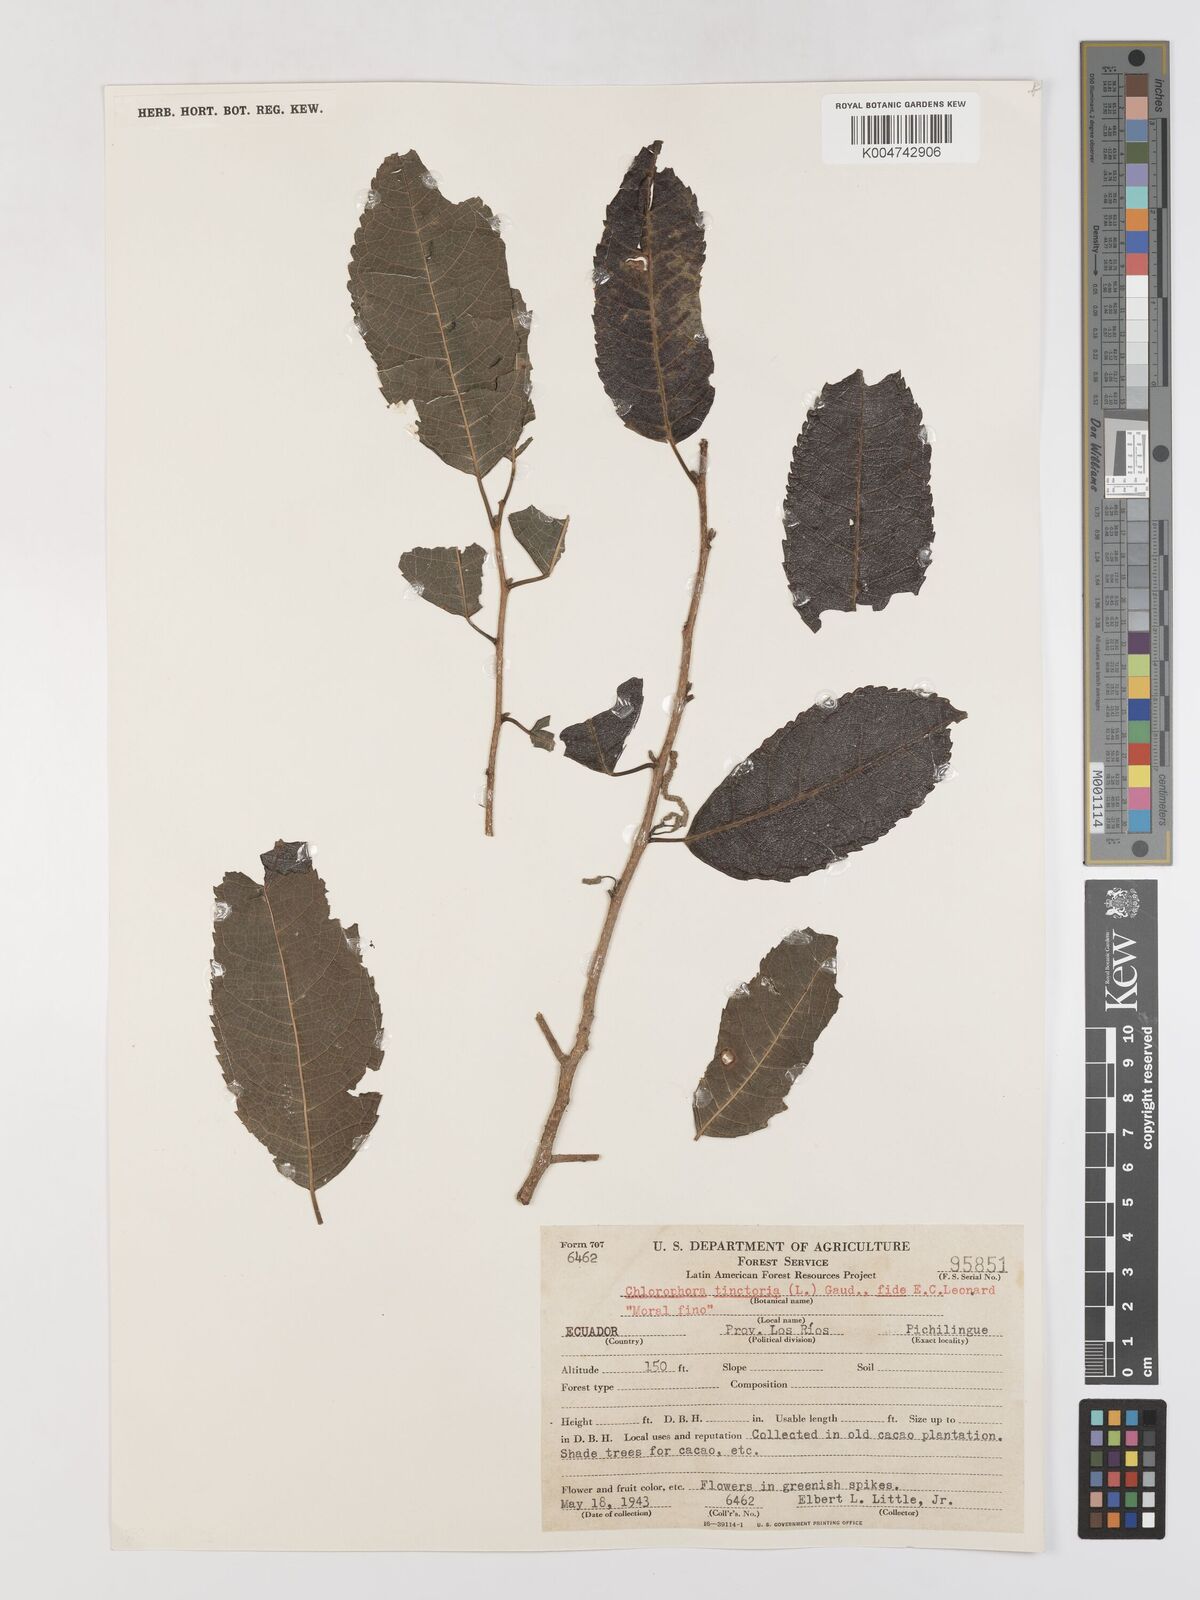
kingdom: Plantae
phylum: Tracheophyta
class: Magnoliopsida
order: Rosales
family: Moraceae
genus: Maclura
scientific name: Maclura tinctoria
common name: Old fustic
